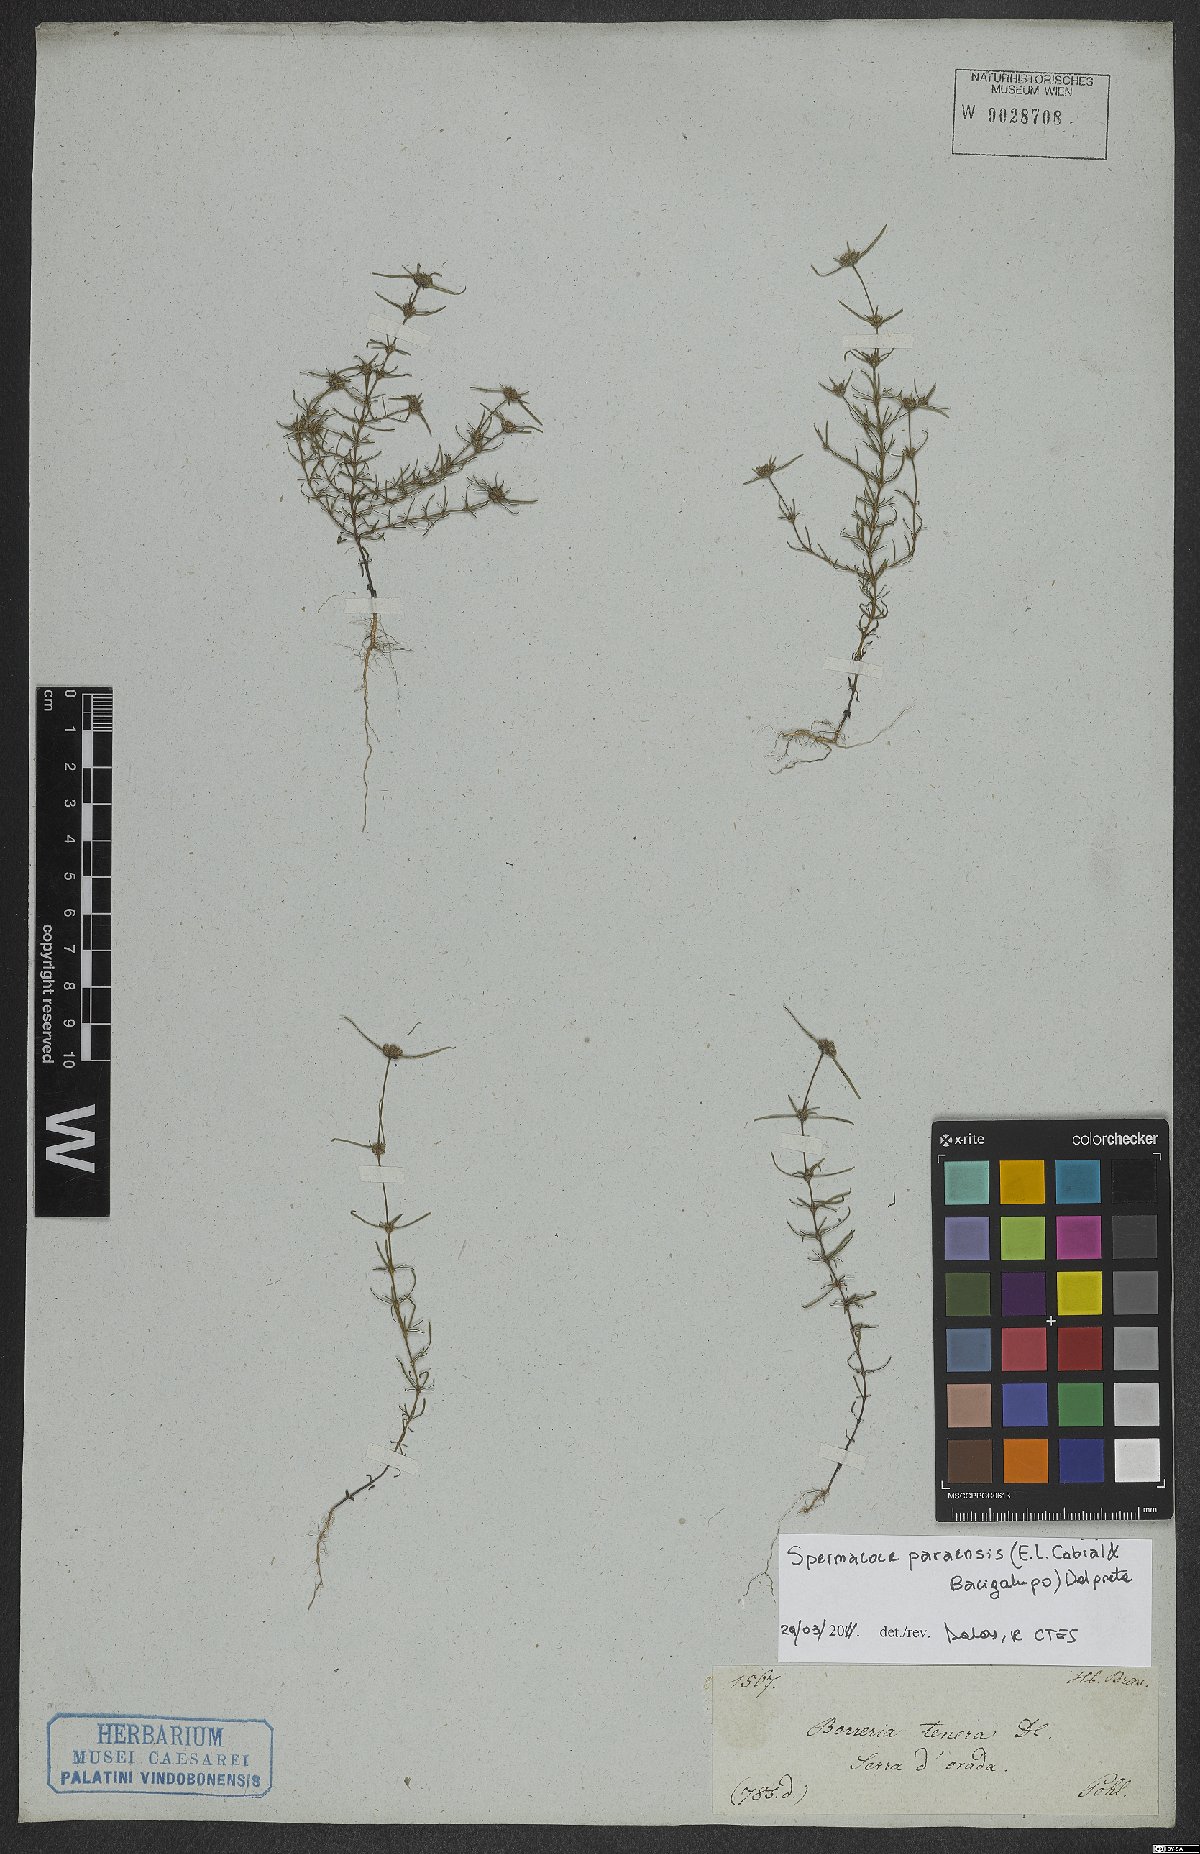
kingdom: Plantae
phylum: Tracheophyta
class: Magnoliopsida
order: Gentianales
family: Rubiaceae
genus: Spermacoce
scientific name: Spermacoce paraensis
